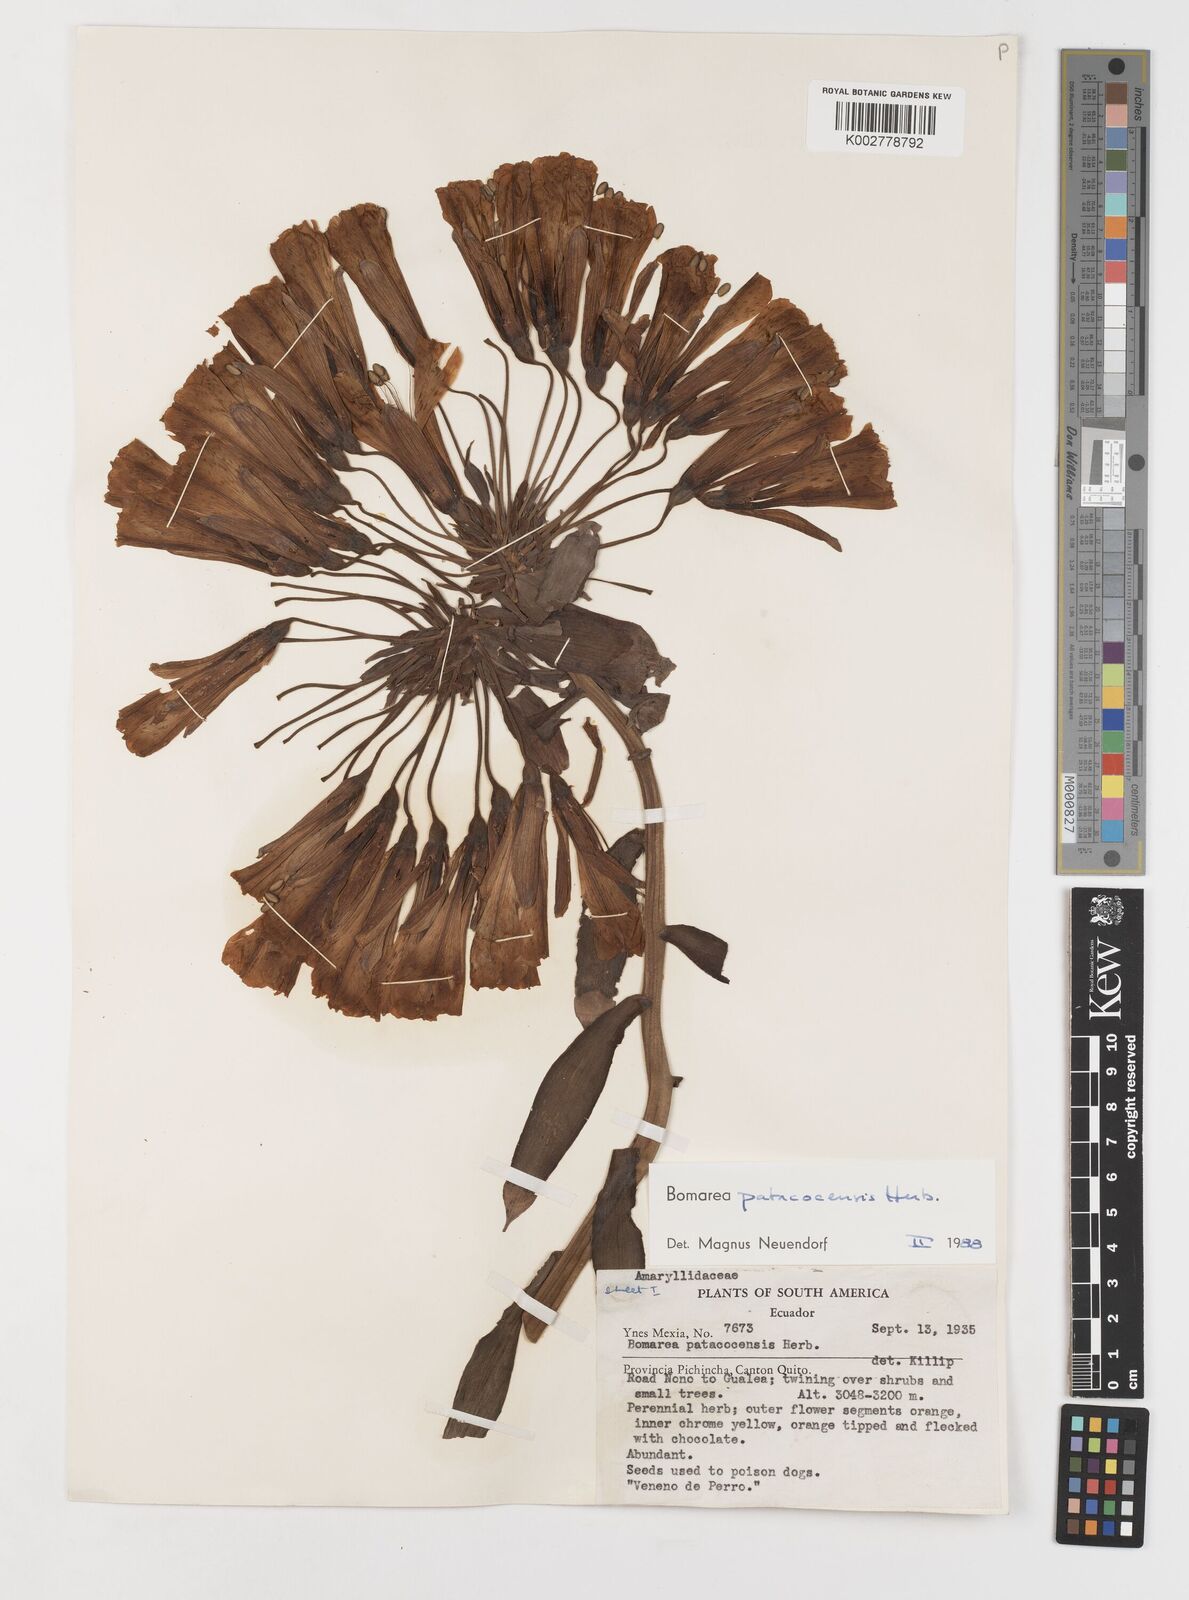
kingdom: Plantae
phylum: Tracheophyta
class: Liliopsida
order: Liliales
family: Alstroemeriaceae
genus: Bomarea
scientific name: Bomarea patacocensis
